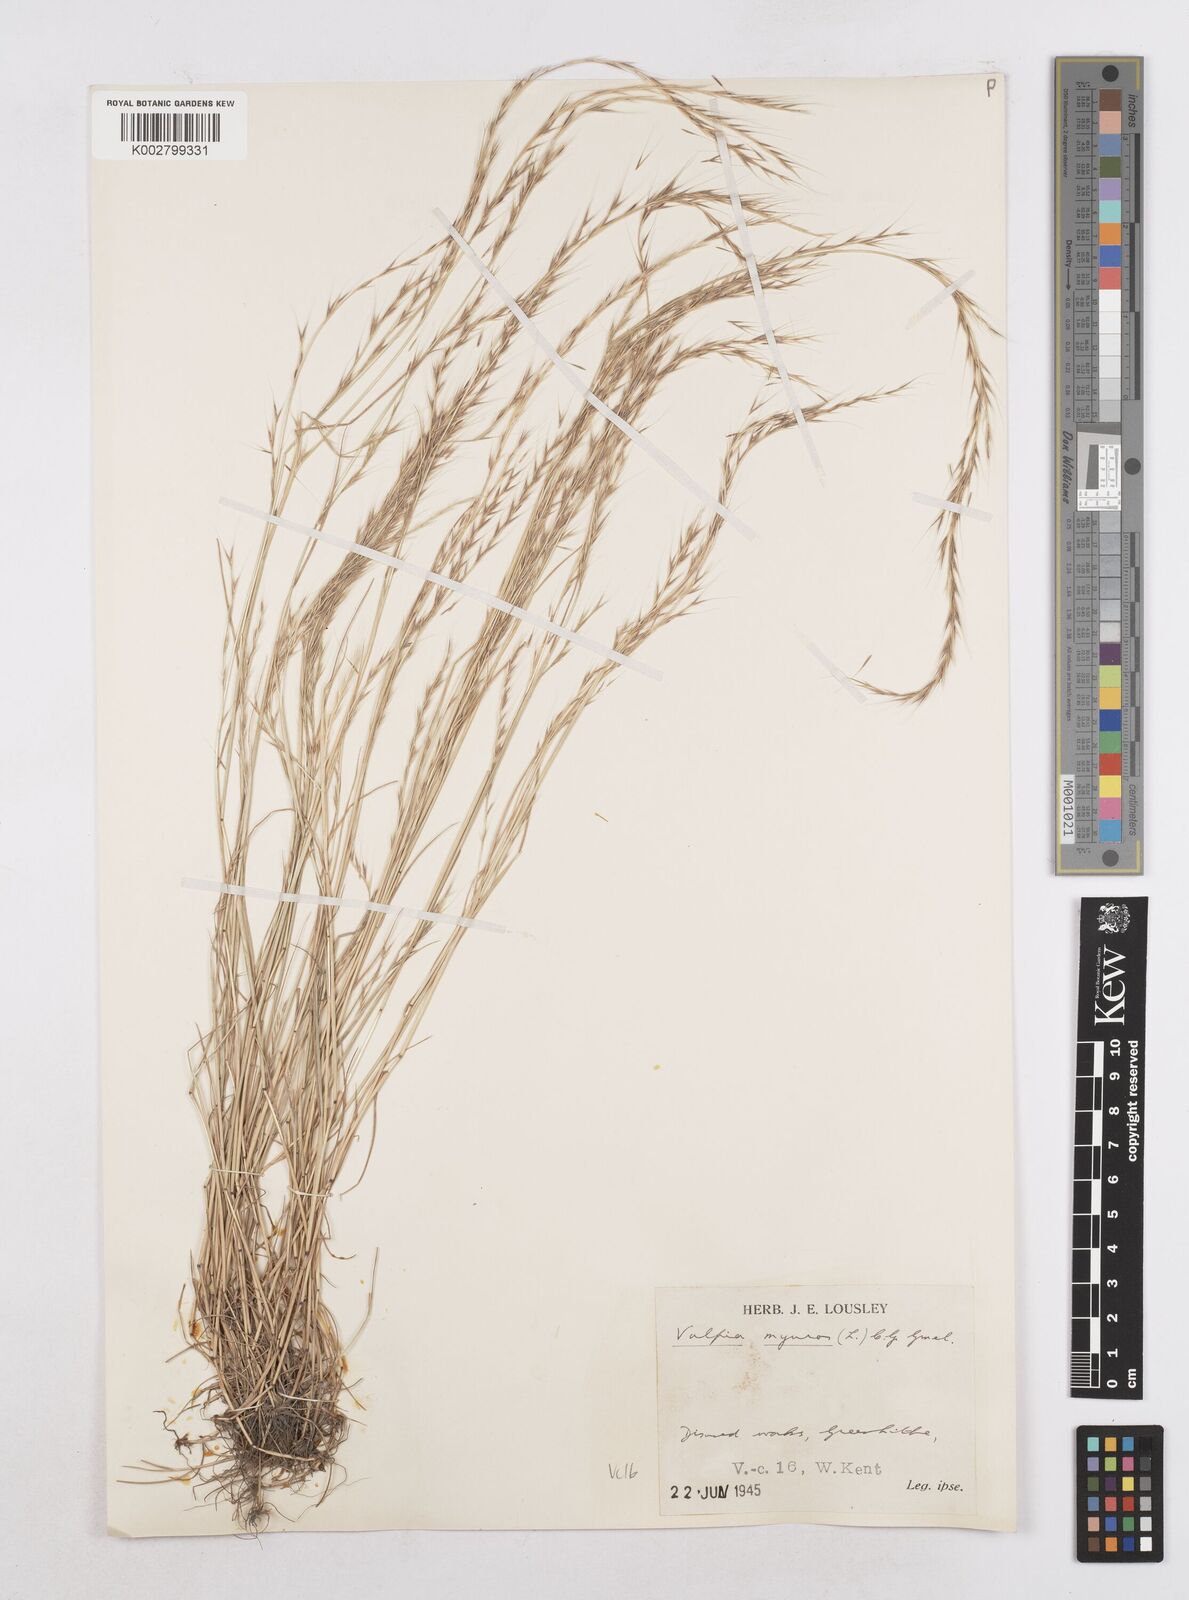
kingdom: Plantae
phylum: Tracheophyta
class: Liliopsida
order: Poales
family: Poaceae
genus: Festuca
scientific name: Festuca myuros
